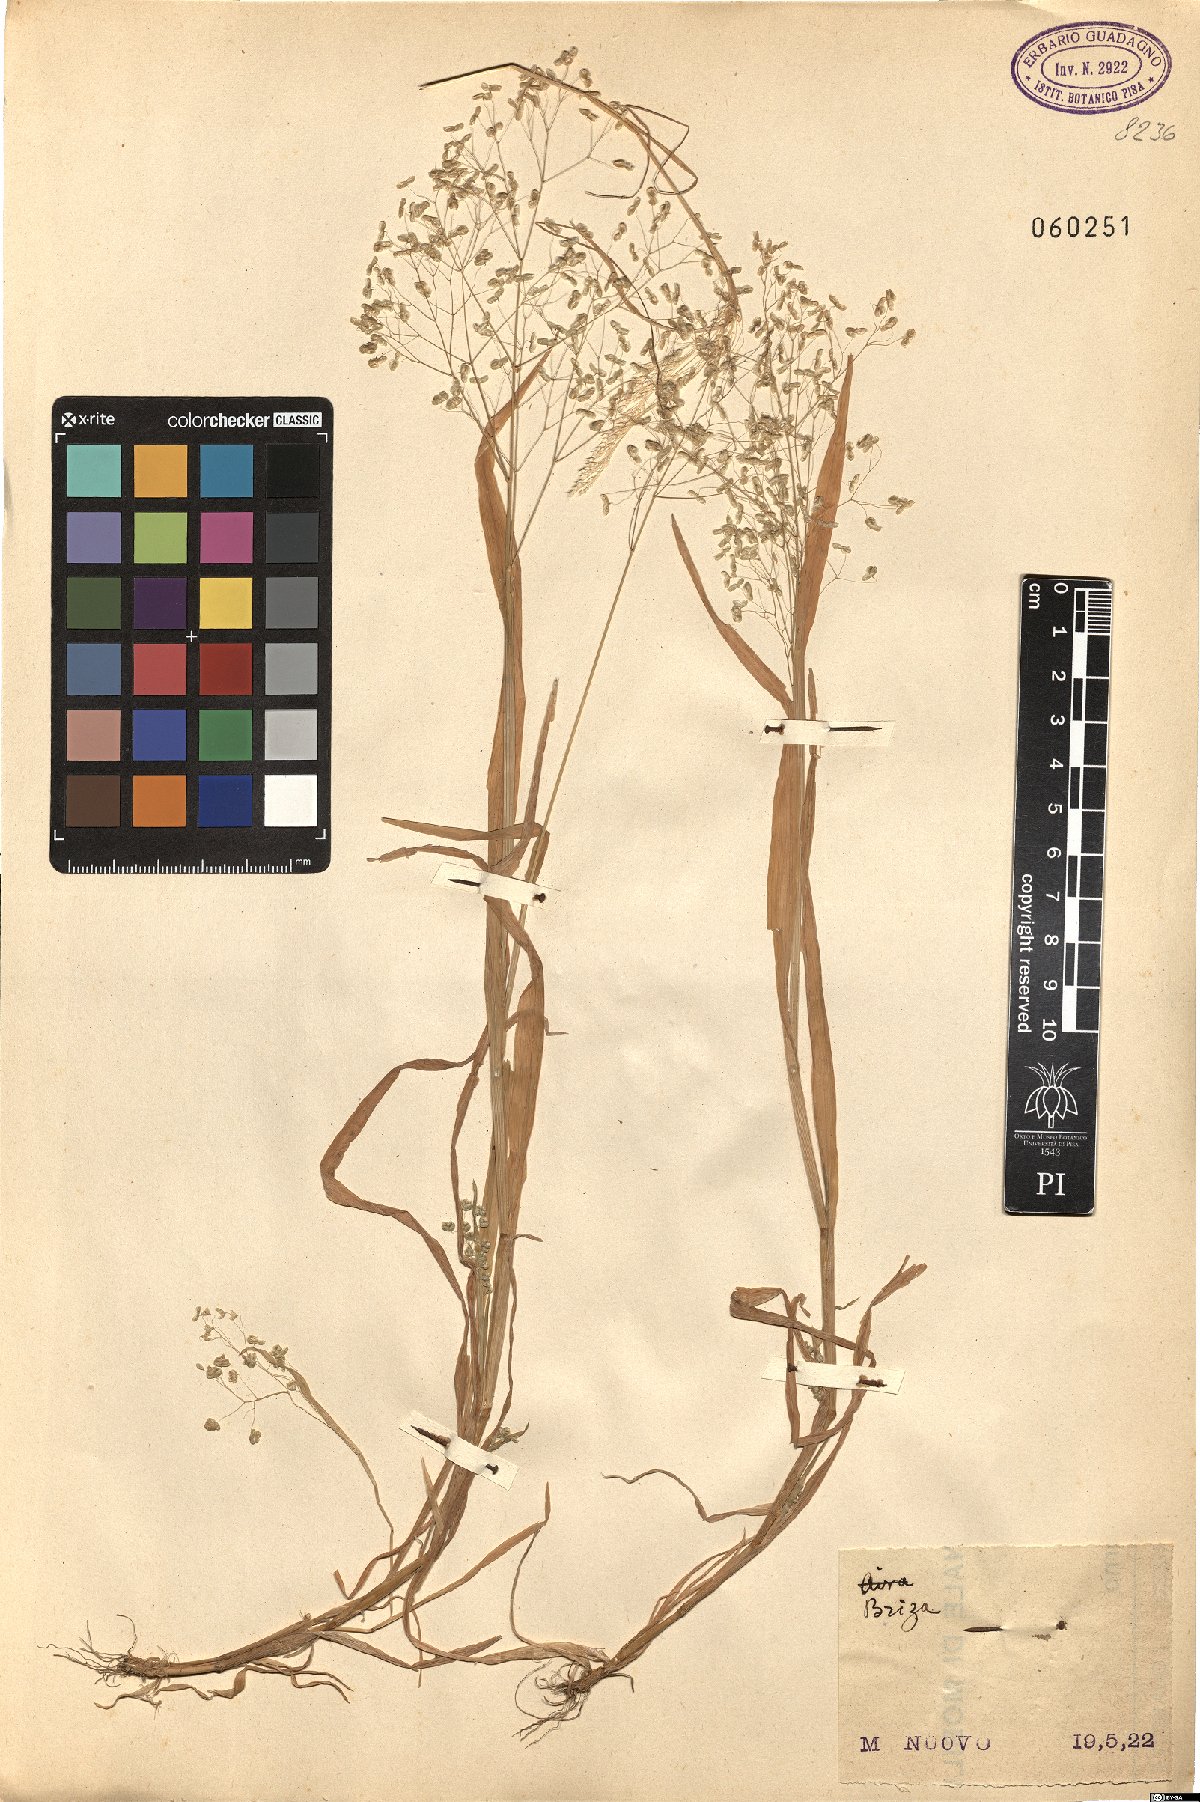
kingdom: Plantae
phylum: Tracheophyta
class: Liliopsida
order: Poales
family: Poaceae
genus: Briza
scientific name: Briza
